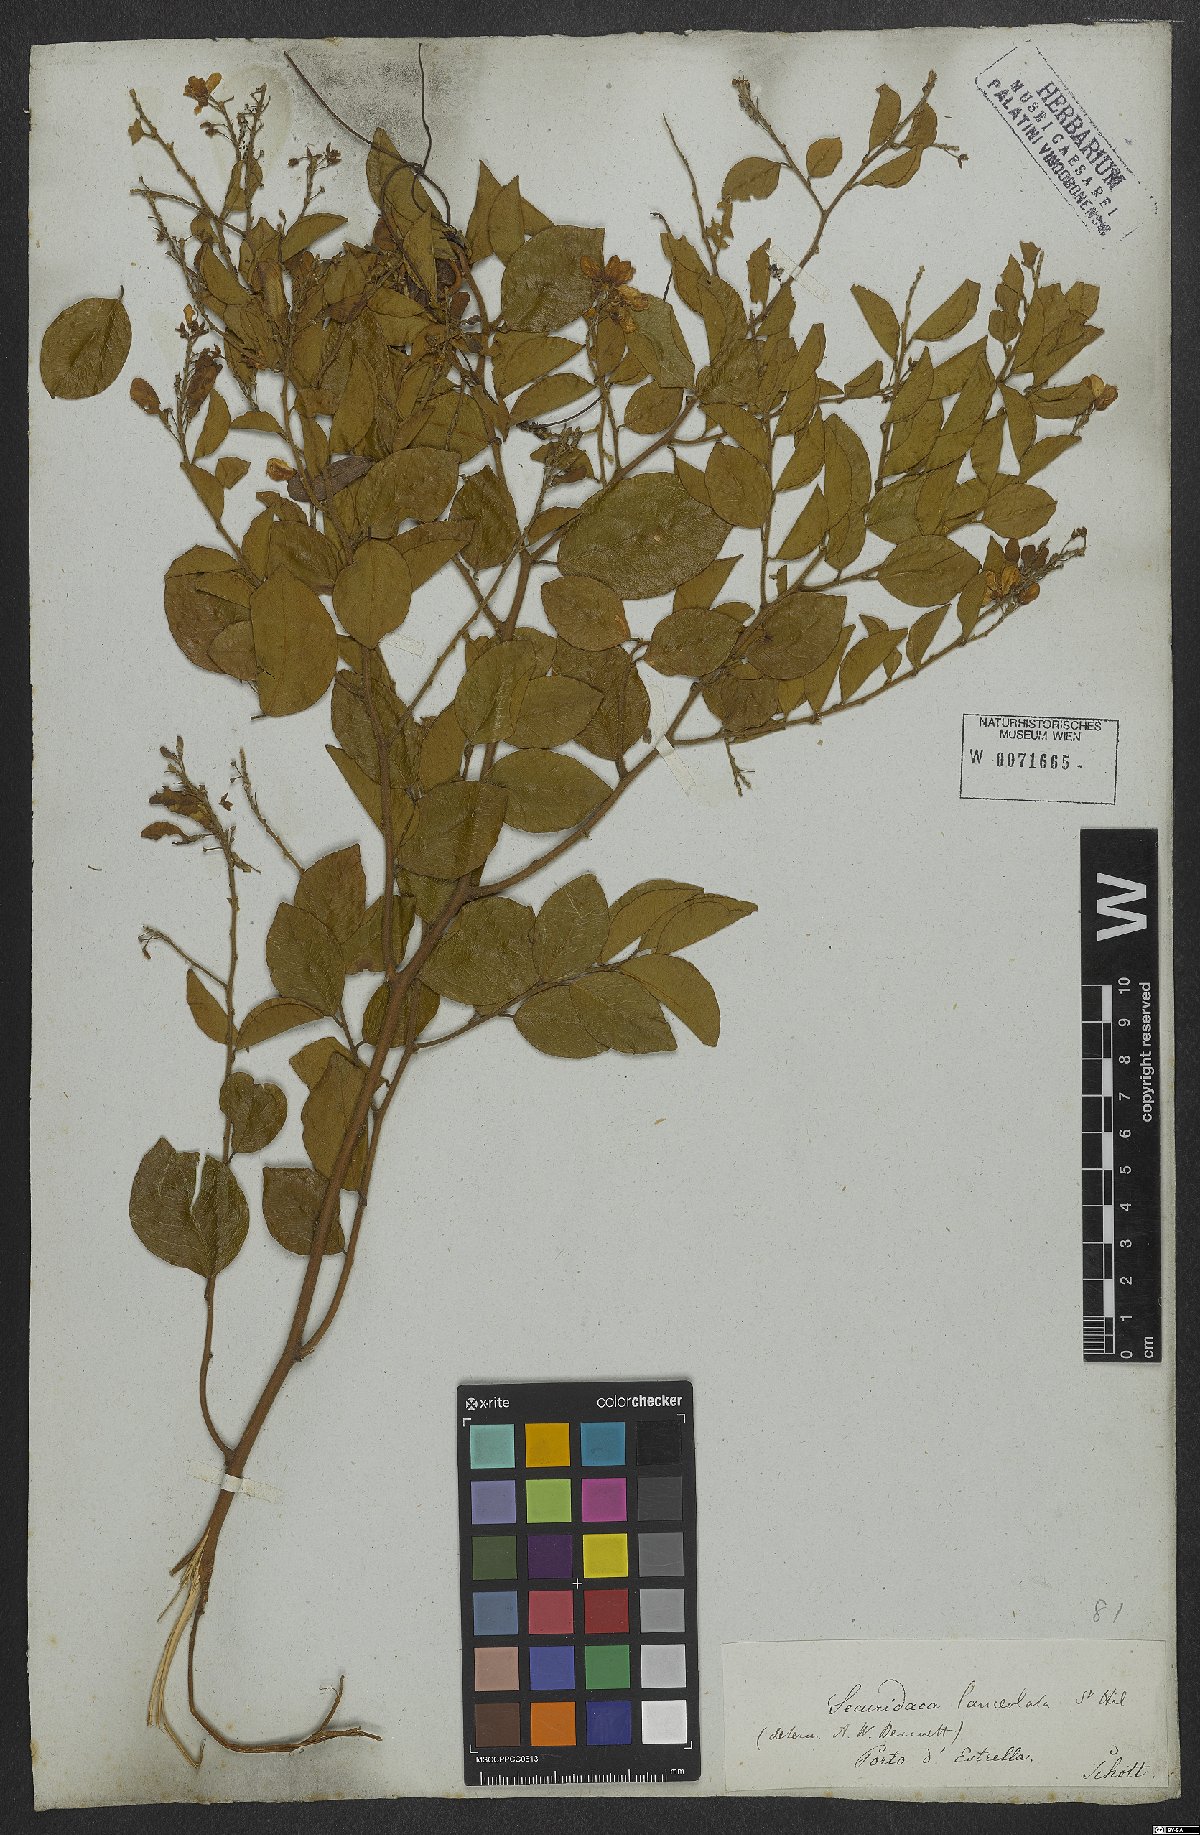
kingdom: Plantae
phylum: Tracheophyta
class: Magnoliopsida
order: Fabales
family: Polygalaceae
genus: Securidaca
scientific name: Securidaca lanceolata
